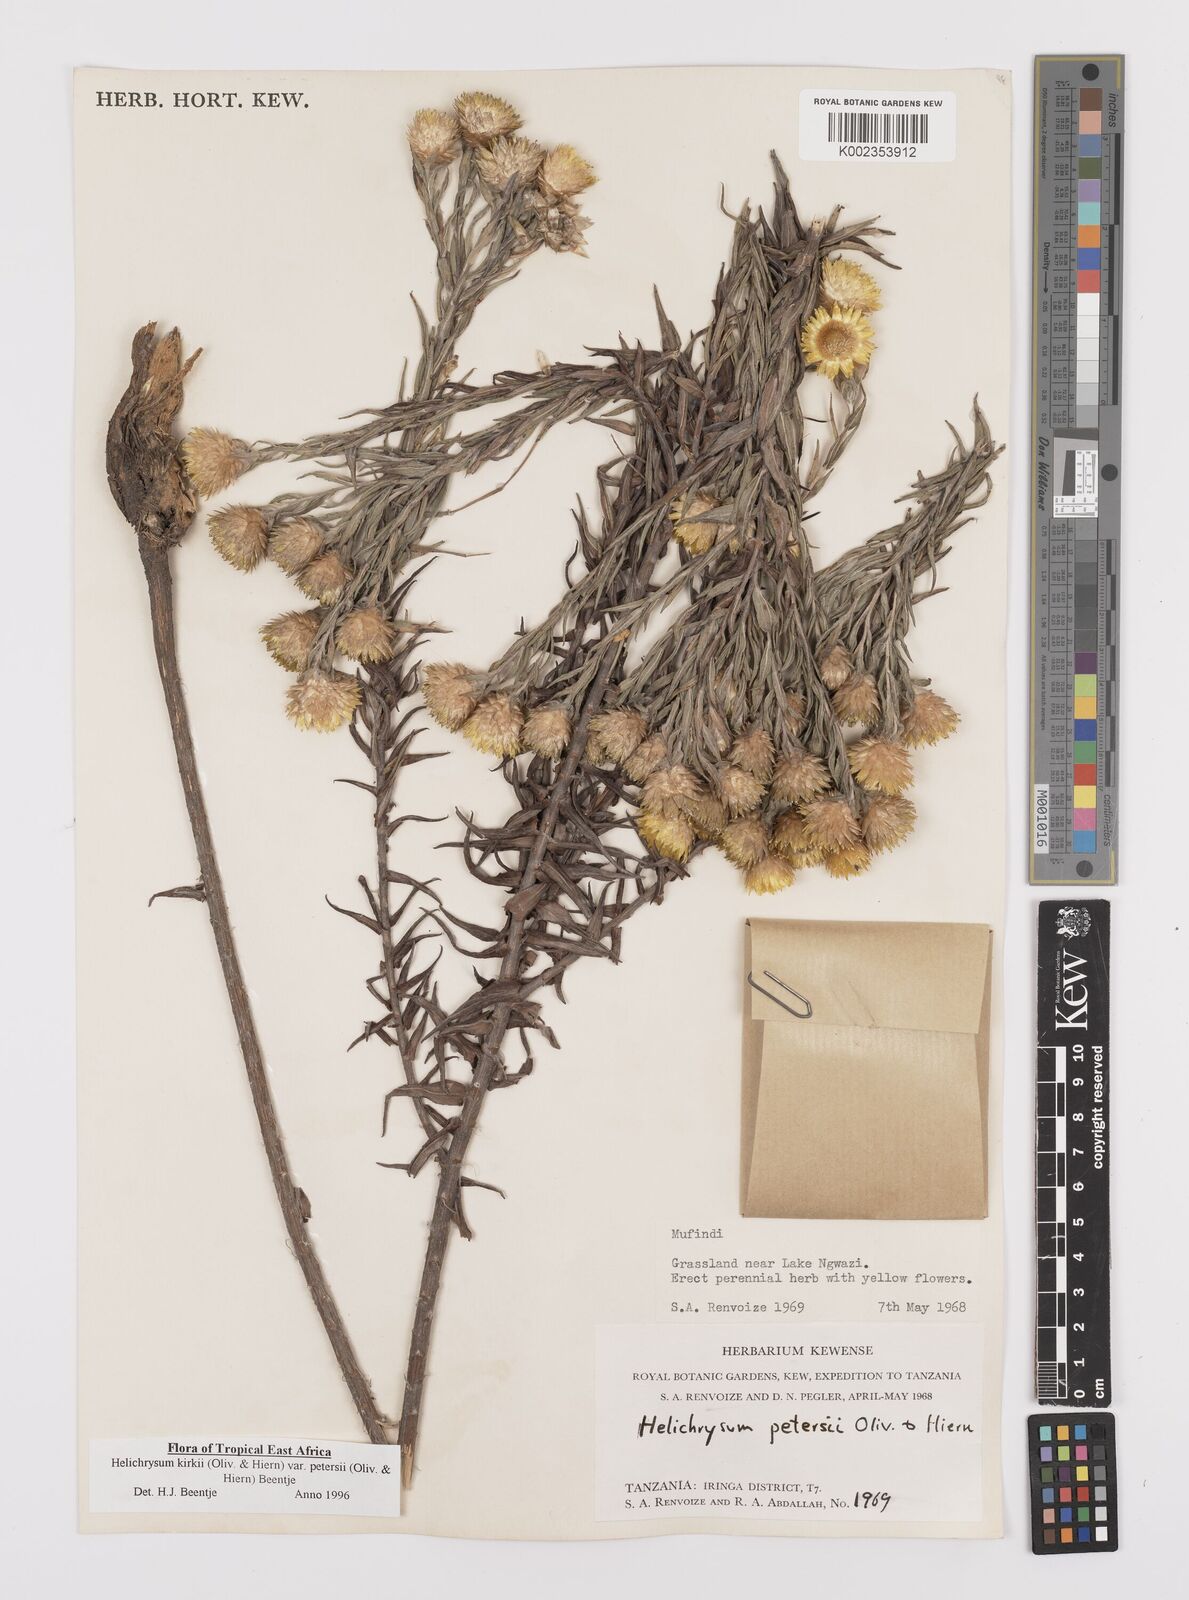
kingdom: Plantae
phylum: Tracheophyta
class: Magnoliopsida
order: Asterales
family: Asteraceae
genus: Helichrysum
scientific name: Helichrysum kirkii
